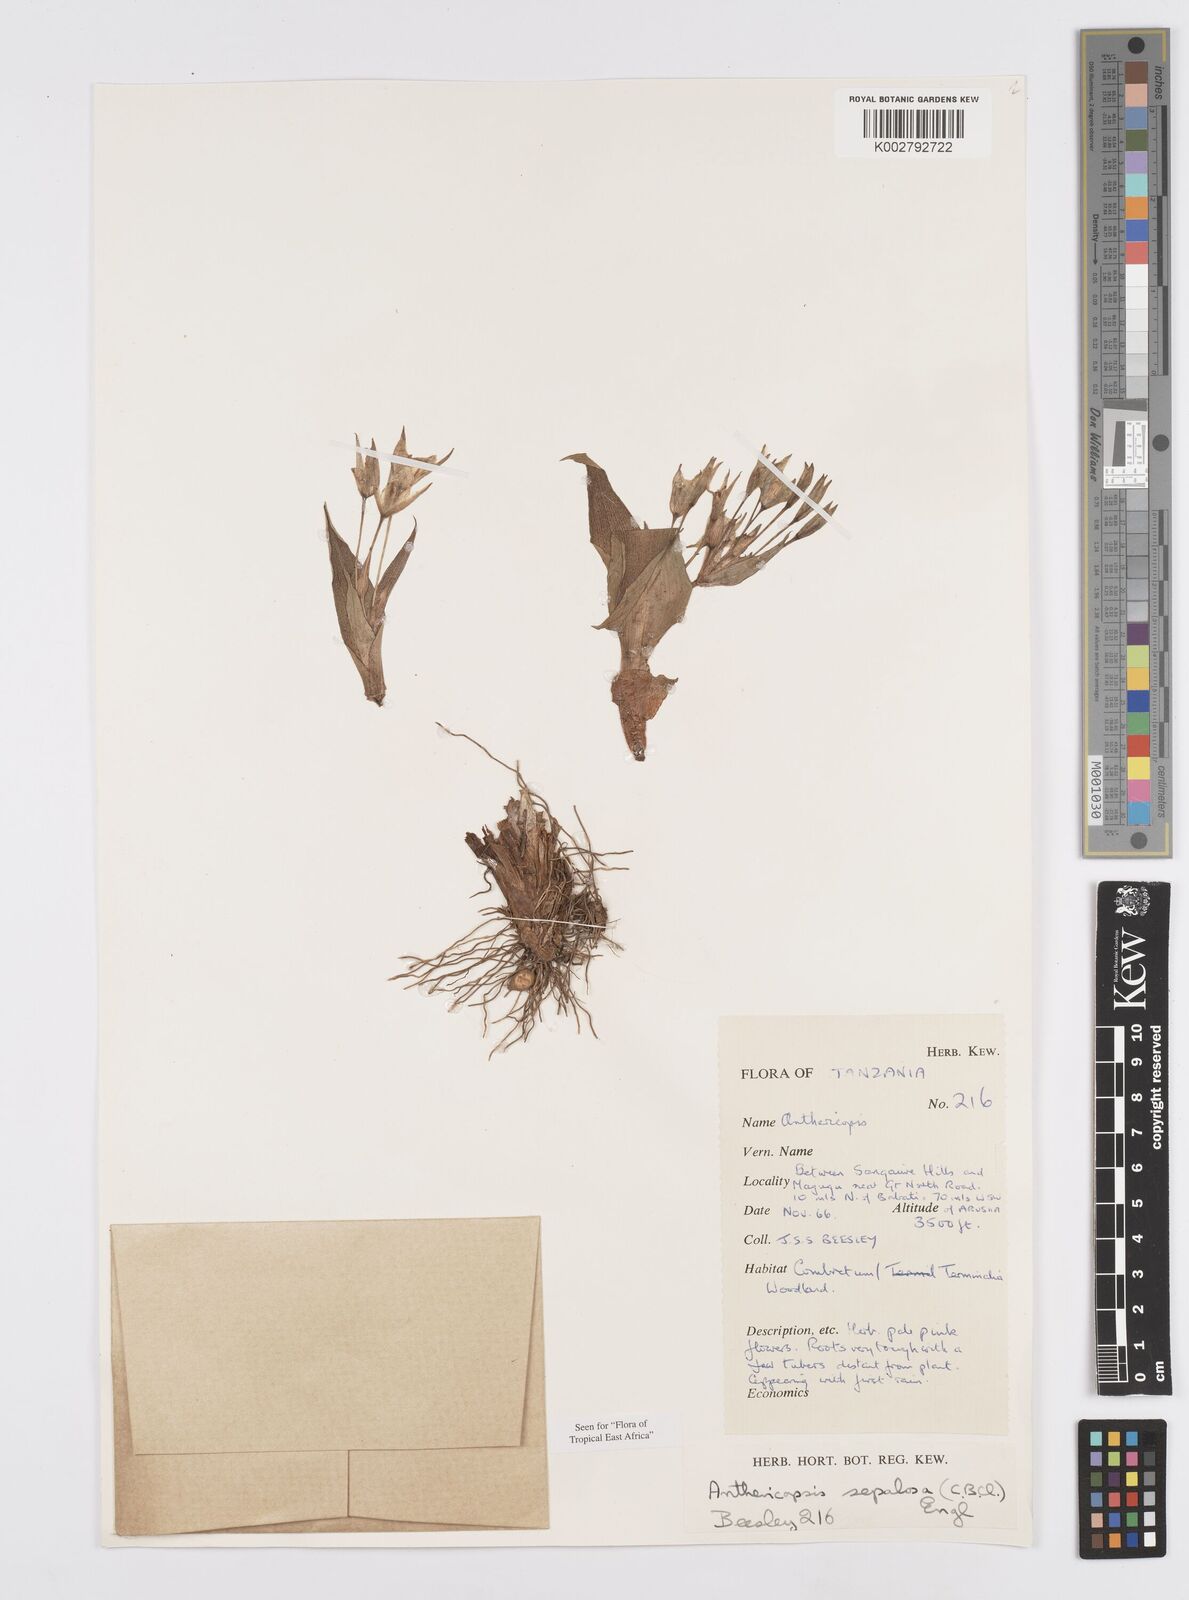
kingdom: Plantae
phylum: Tracheophyta
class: Liliopsida
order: Commelinales
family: Commelinaceae
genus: Anthericopsis
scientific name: Anthericopsis sepalosa
